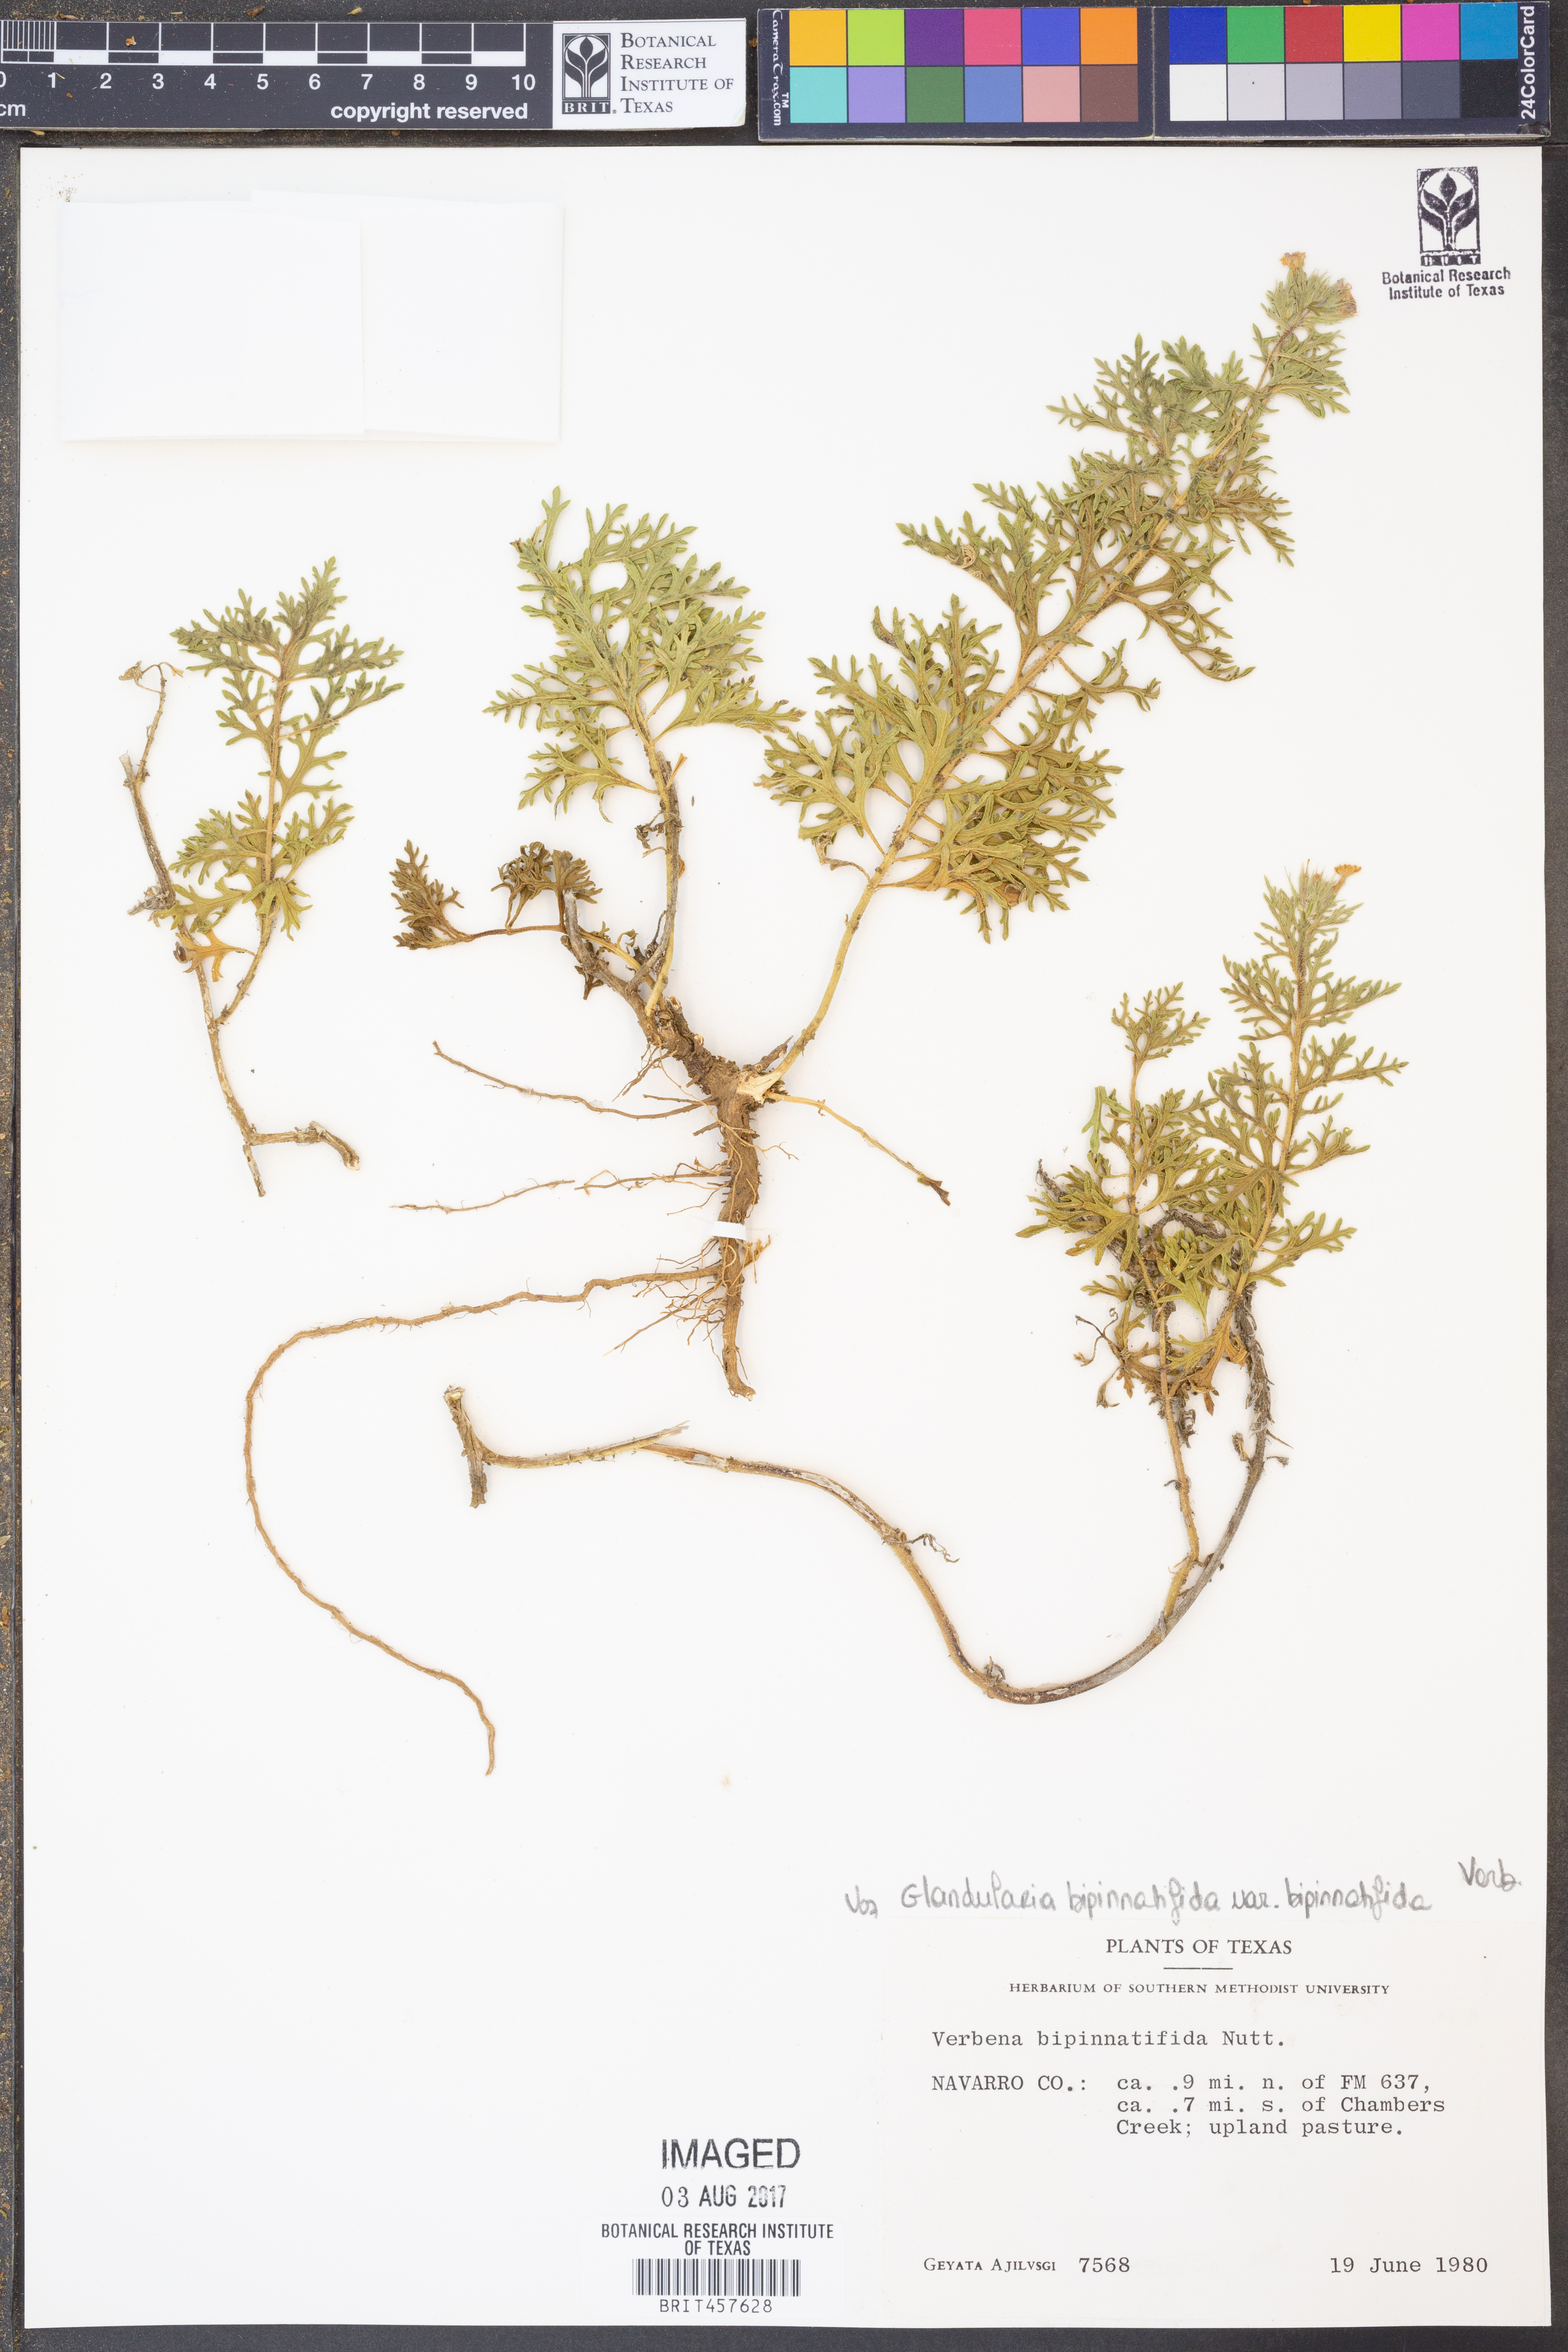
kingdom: Plantae
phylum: Tracheophyta
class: Magnoliopsida
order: Lamiales
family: Verbenaceae
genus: Verbena
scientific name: Verbena bipinnatifida
